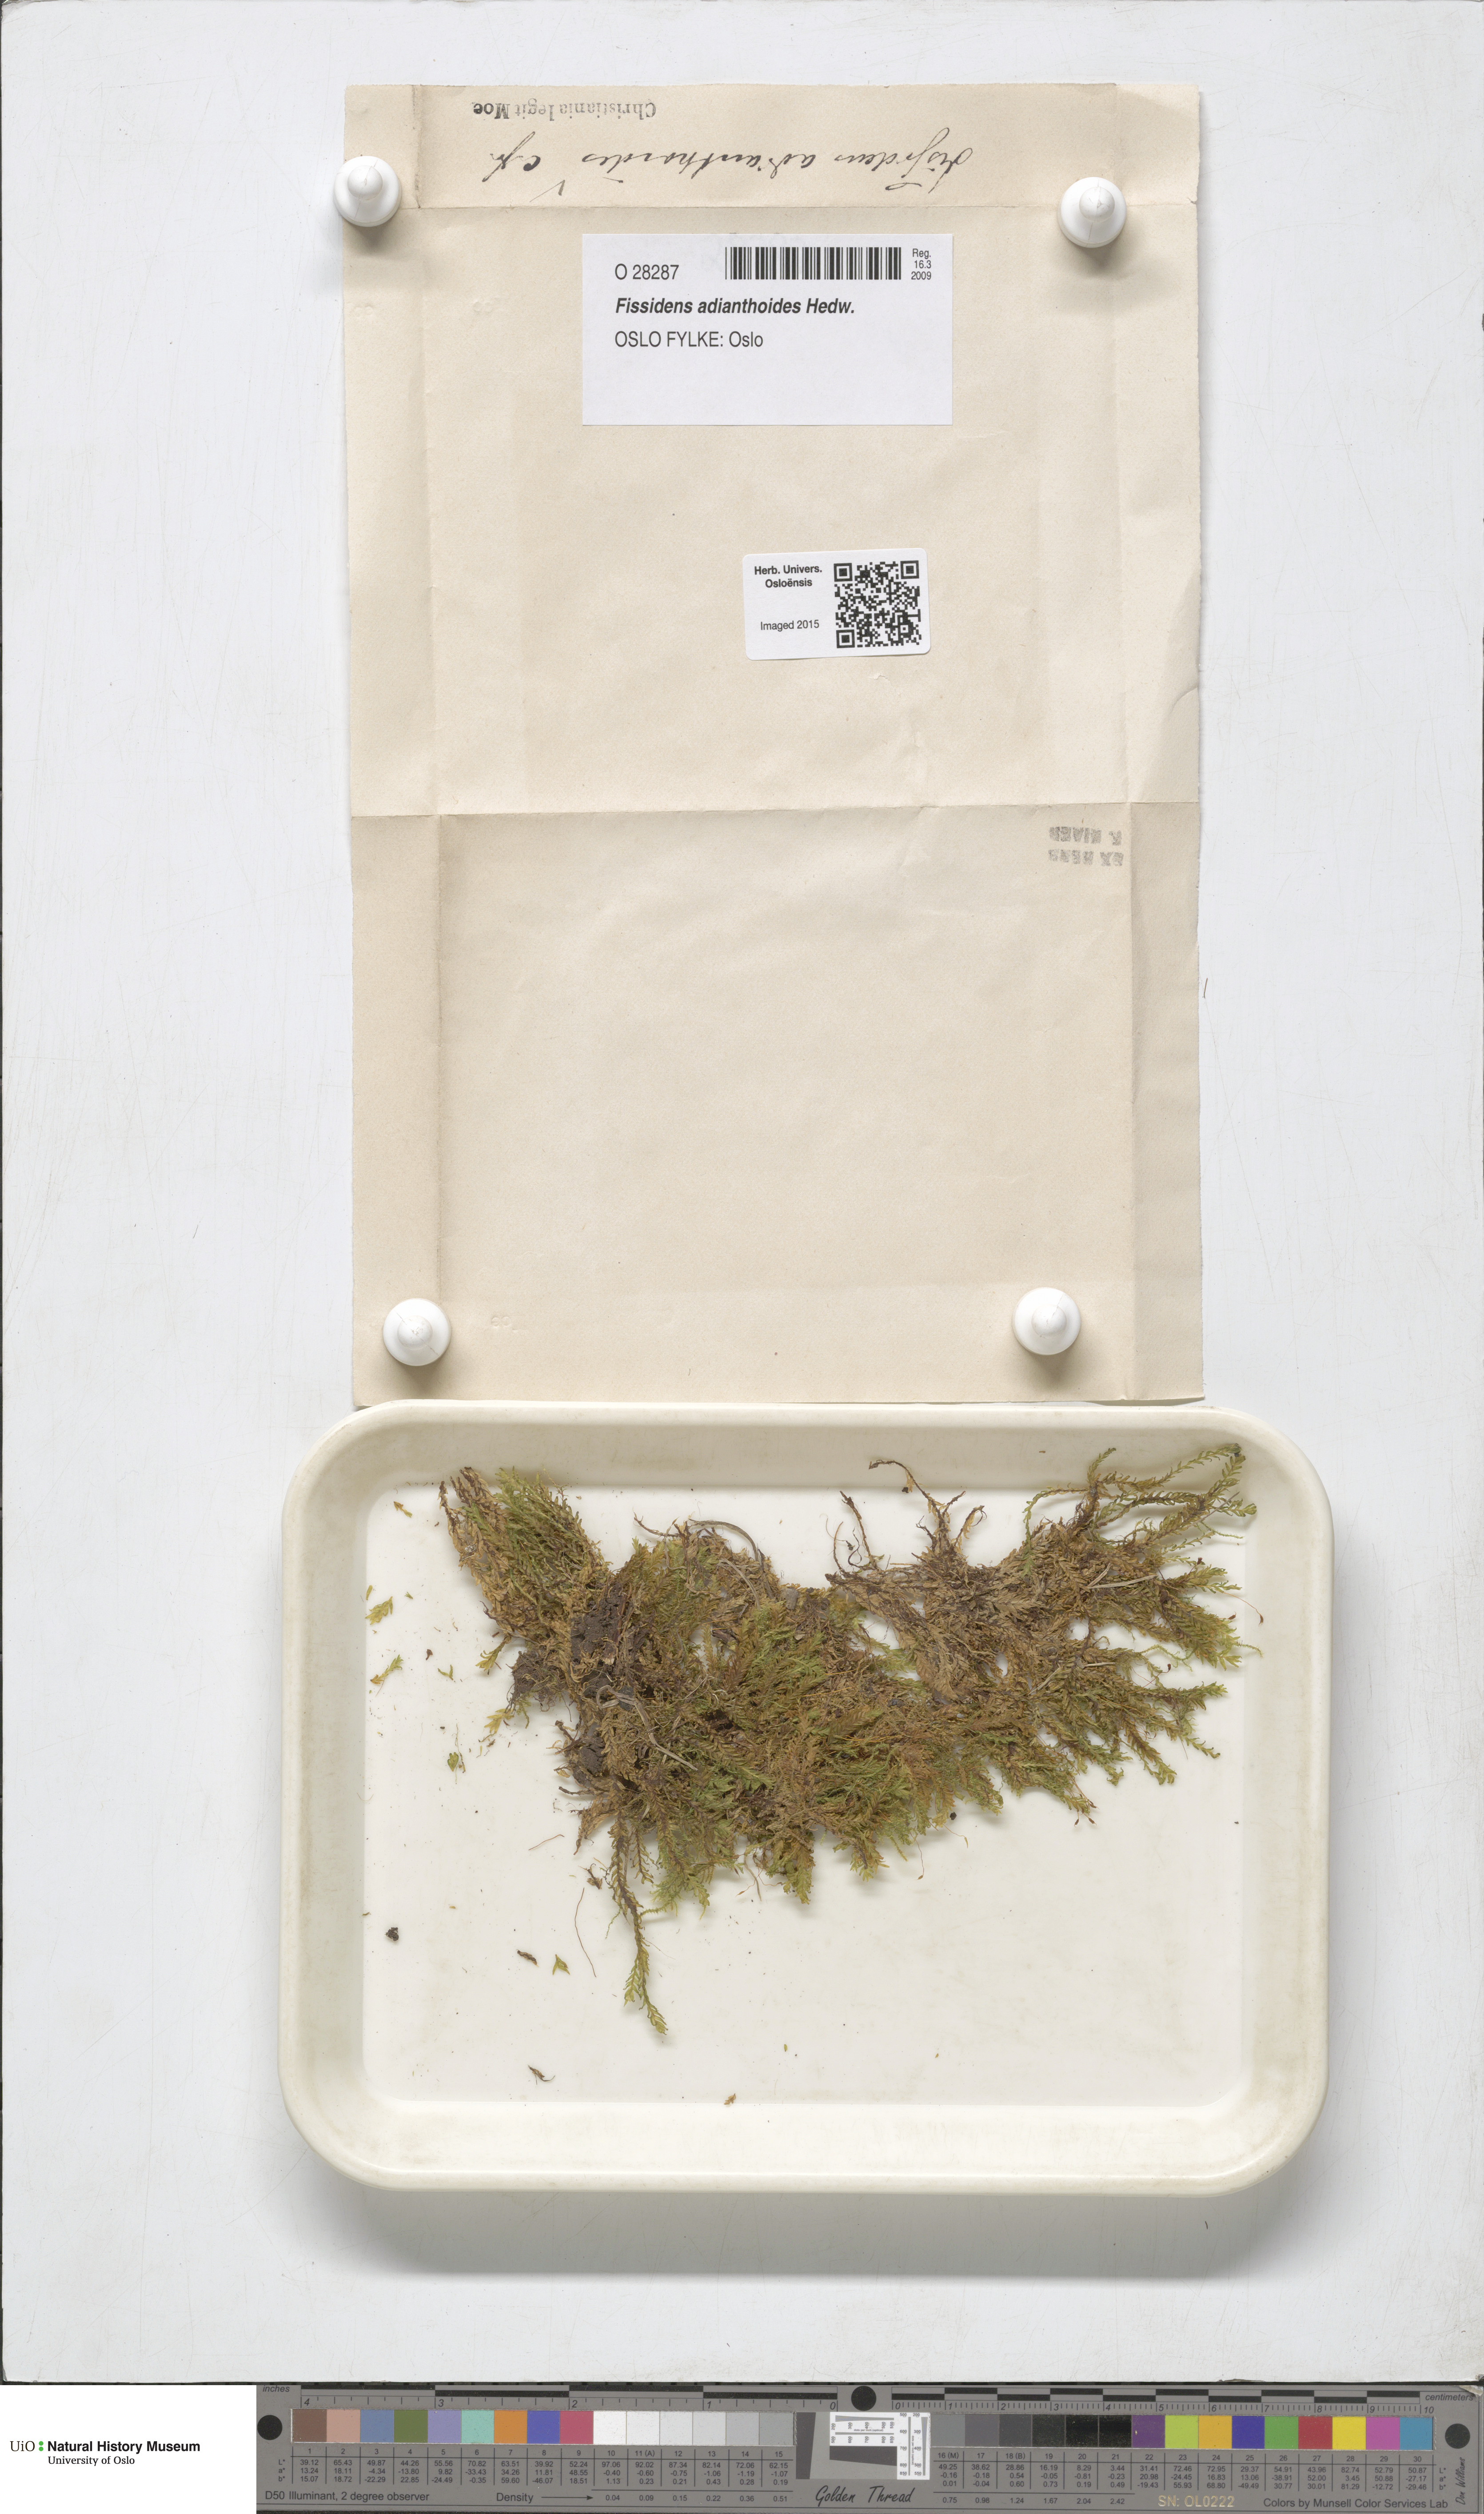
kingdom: Plantae
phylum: Bryophyta
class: Bryopsida
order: Dicranales
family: Fissidentaceae
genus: Fissidens
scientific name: Fissidens adianthoides
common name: Maidenhair pocket moss
